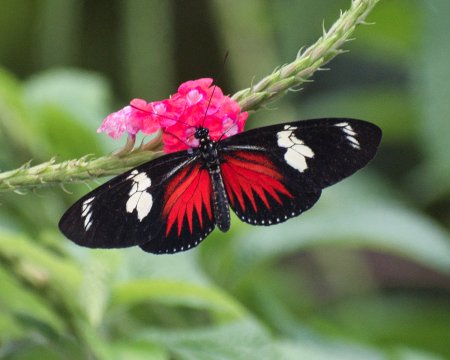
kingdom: Animalia
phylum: Arthropoda
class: Insecta
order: Lepidoptera
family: Nymphalidae
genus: Heliconius
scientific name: Heliconius doris
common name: Doris Longwing
